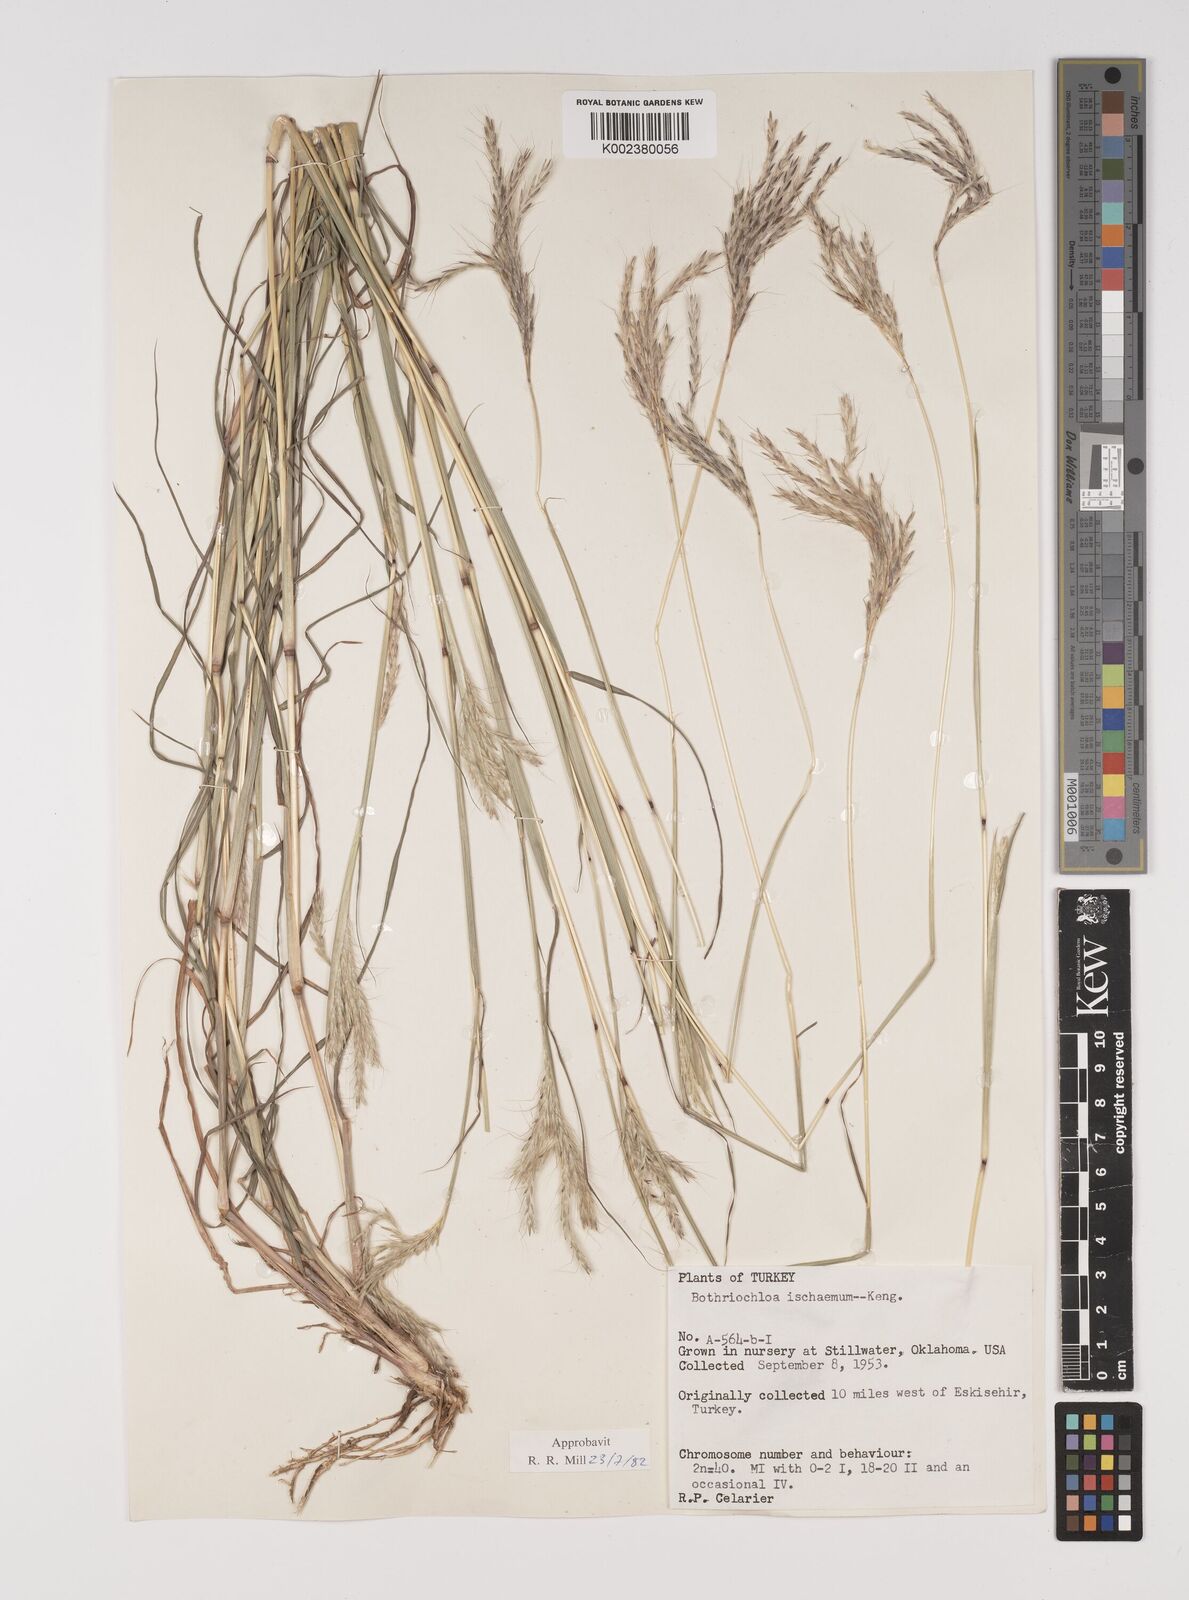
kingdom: Plantae
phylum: Tracheophyta
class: Liliopsida
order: Poales
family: Poaceae
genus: Bothriochloa
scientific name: Bothriochloa ischaemum
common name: Yellow bluestem
